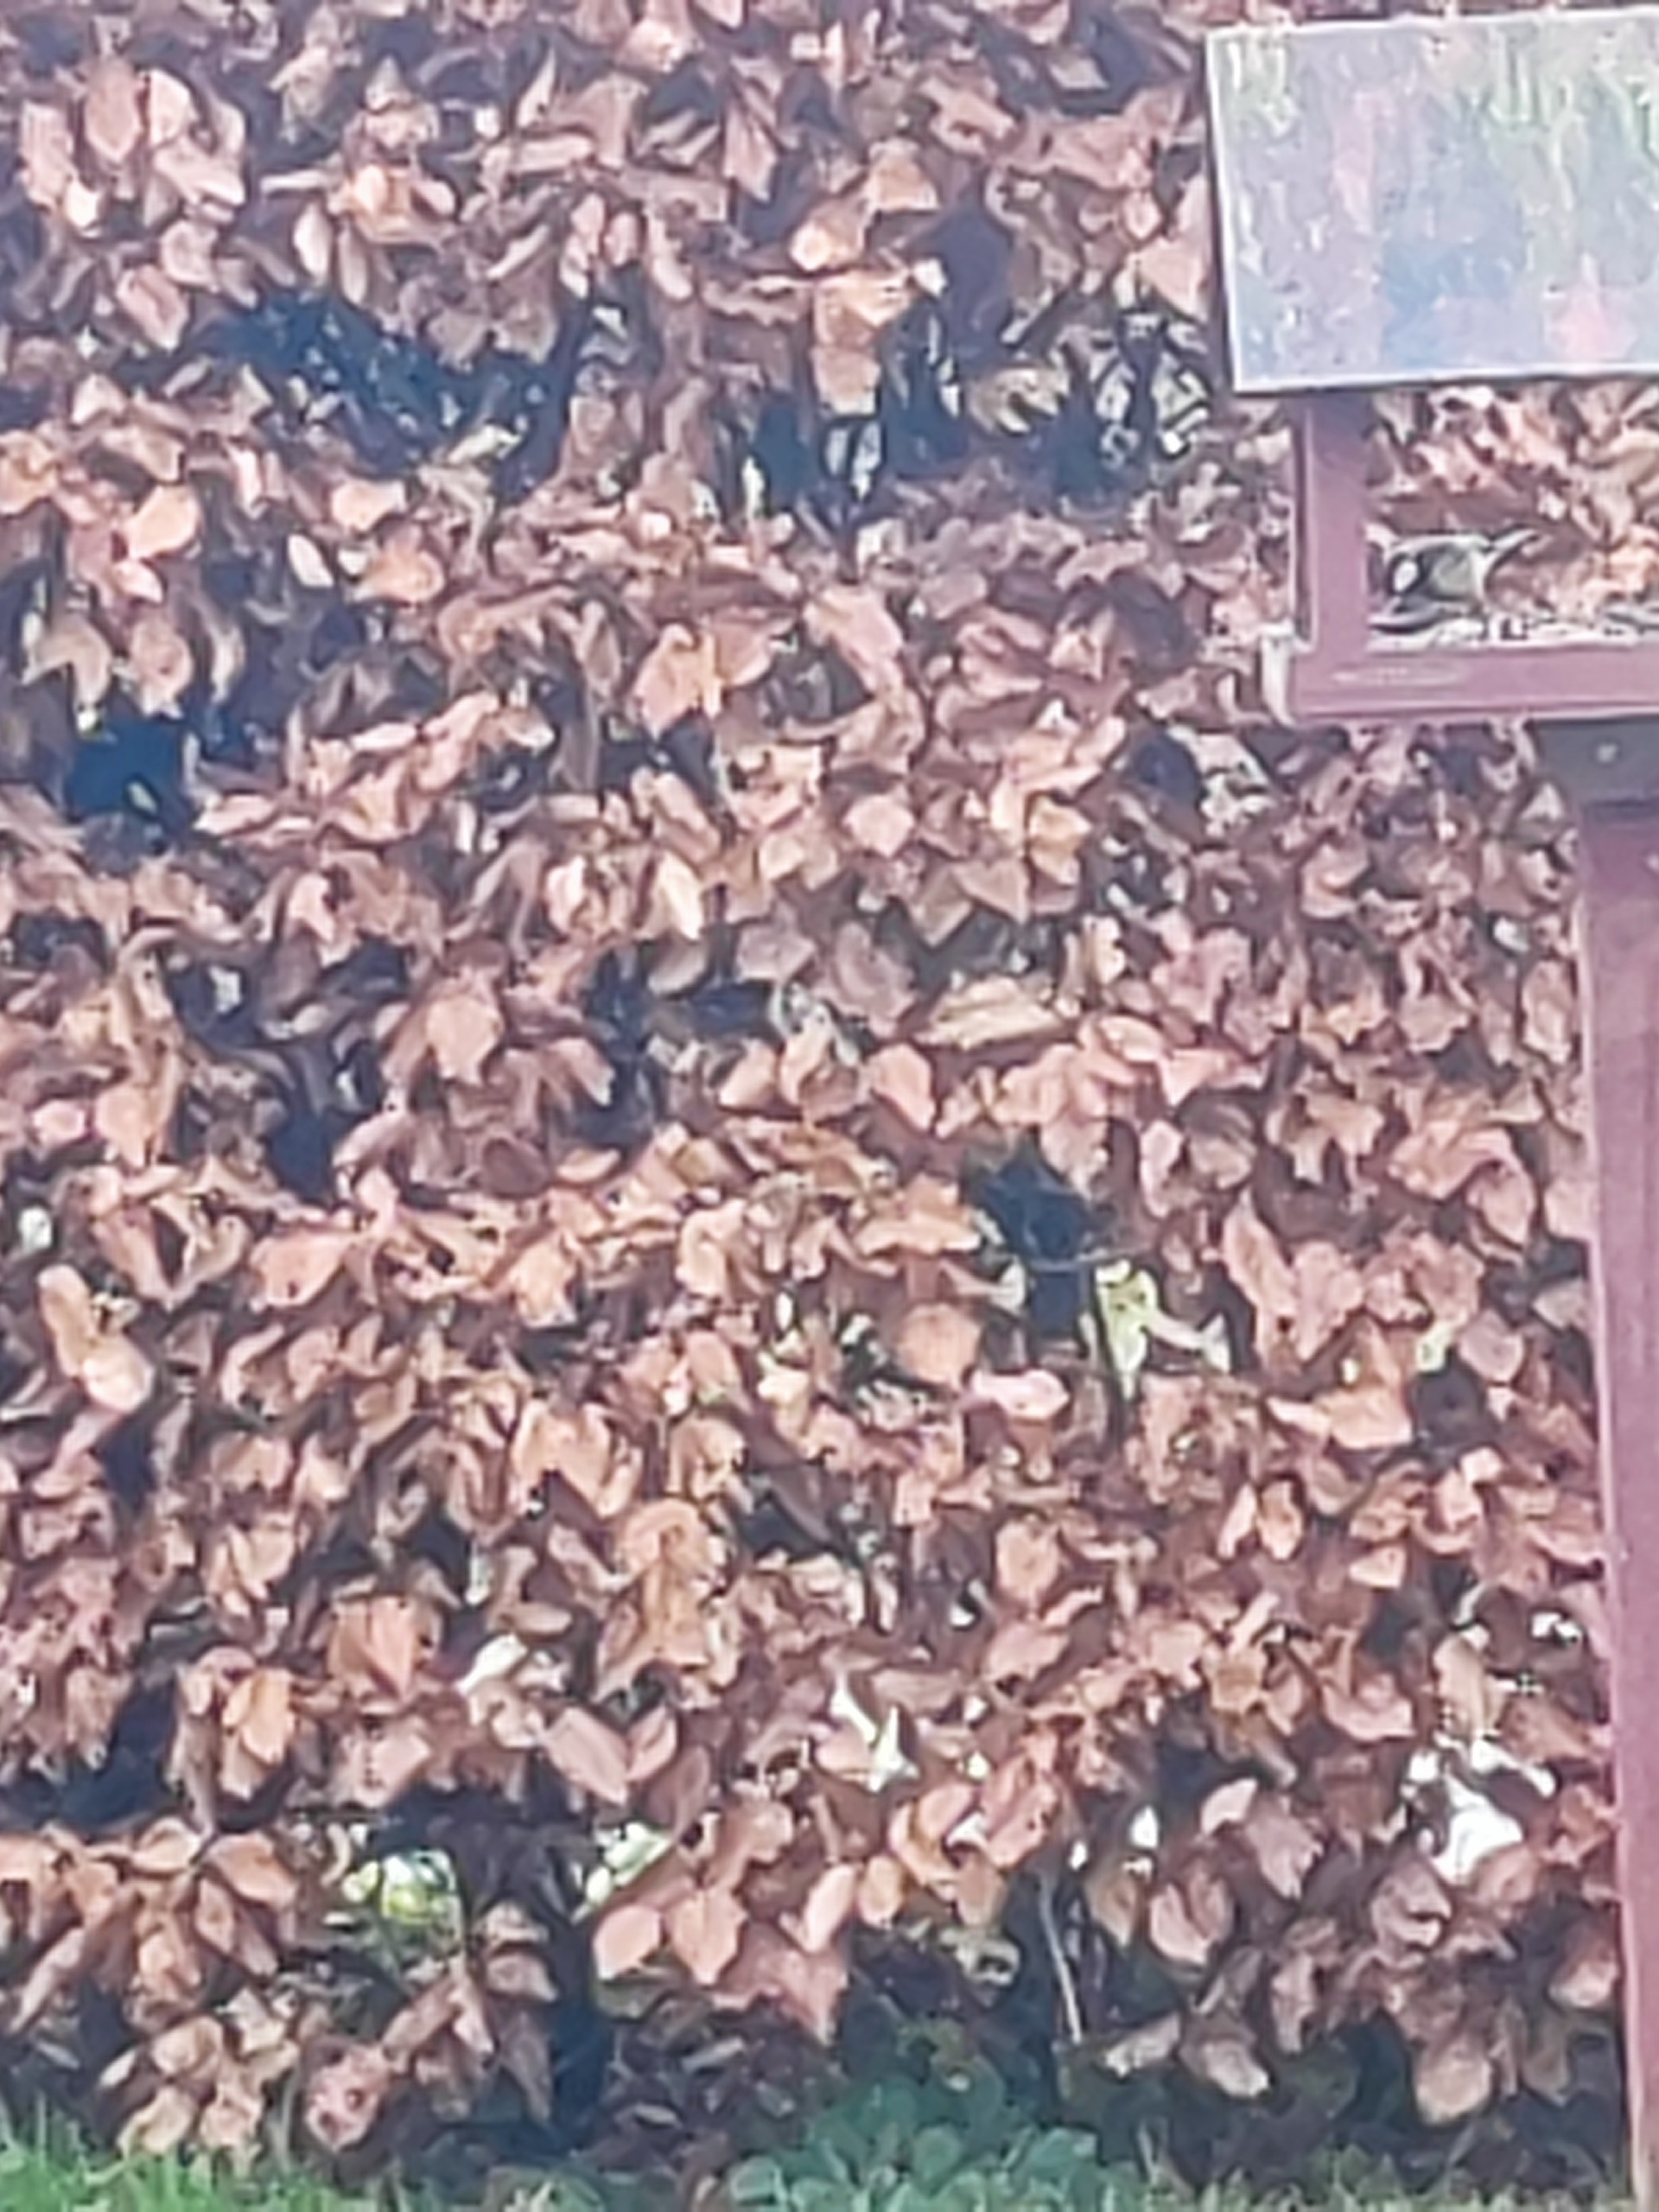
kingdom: Animalia
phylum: Chordata
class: Aves
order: Passeriformes
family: Paridae
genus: Parus
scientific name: Parus major
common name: Musvit
